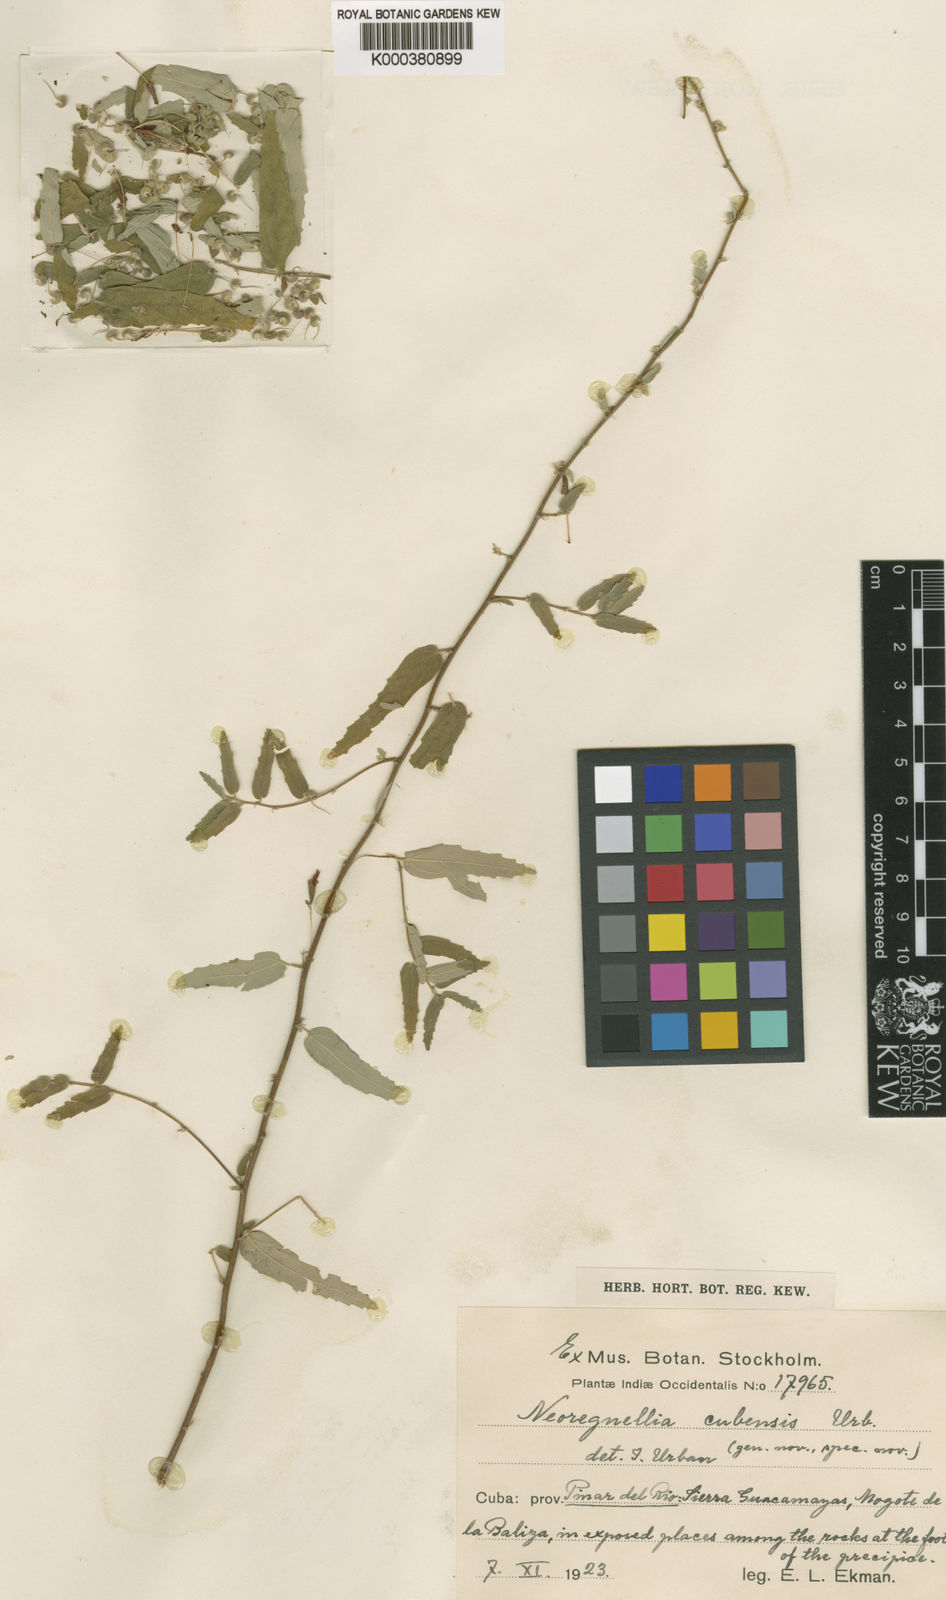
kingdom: Plantae
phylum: Tracheophyta
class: Magnoliopsida
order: Malvales
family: Malvaceae
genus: Neoregnellia
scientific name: Neoregnellia cubensis
